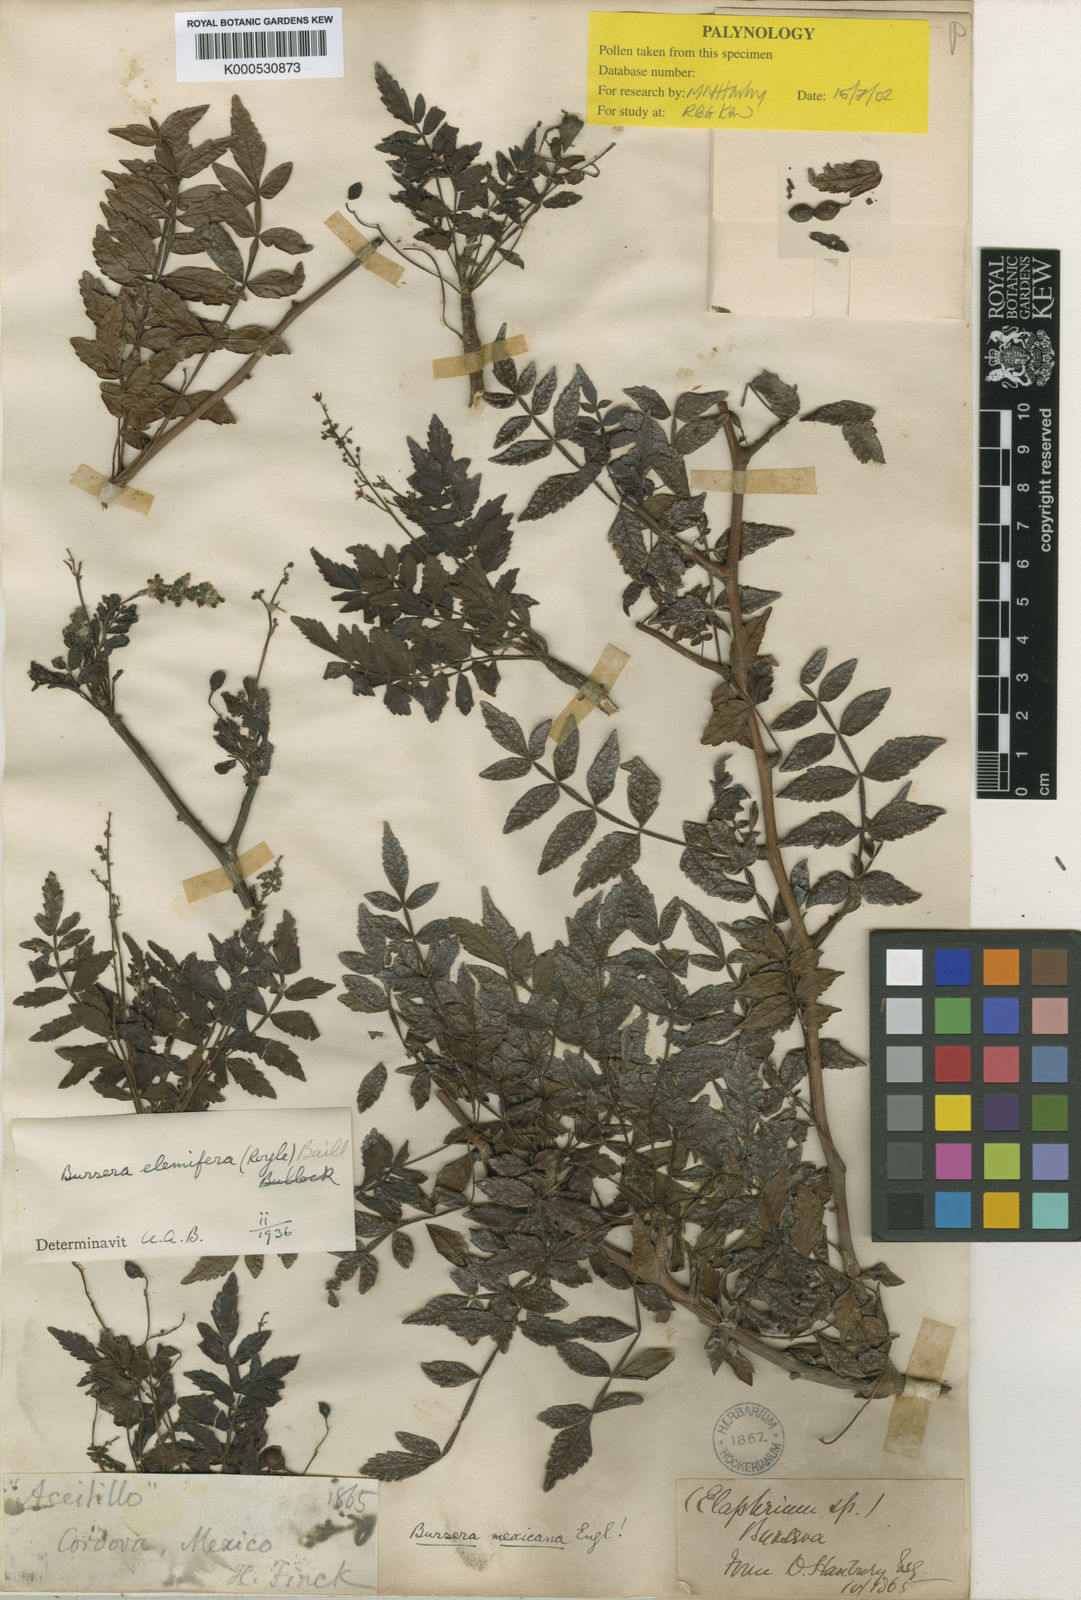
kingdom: Plantae
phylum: Tracheophyta
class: Magnoliopsida
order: Sapindales
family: Burseraceae
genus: Bursera
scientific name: Bursera bipinnata
